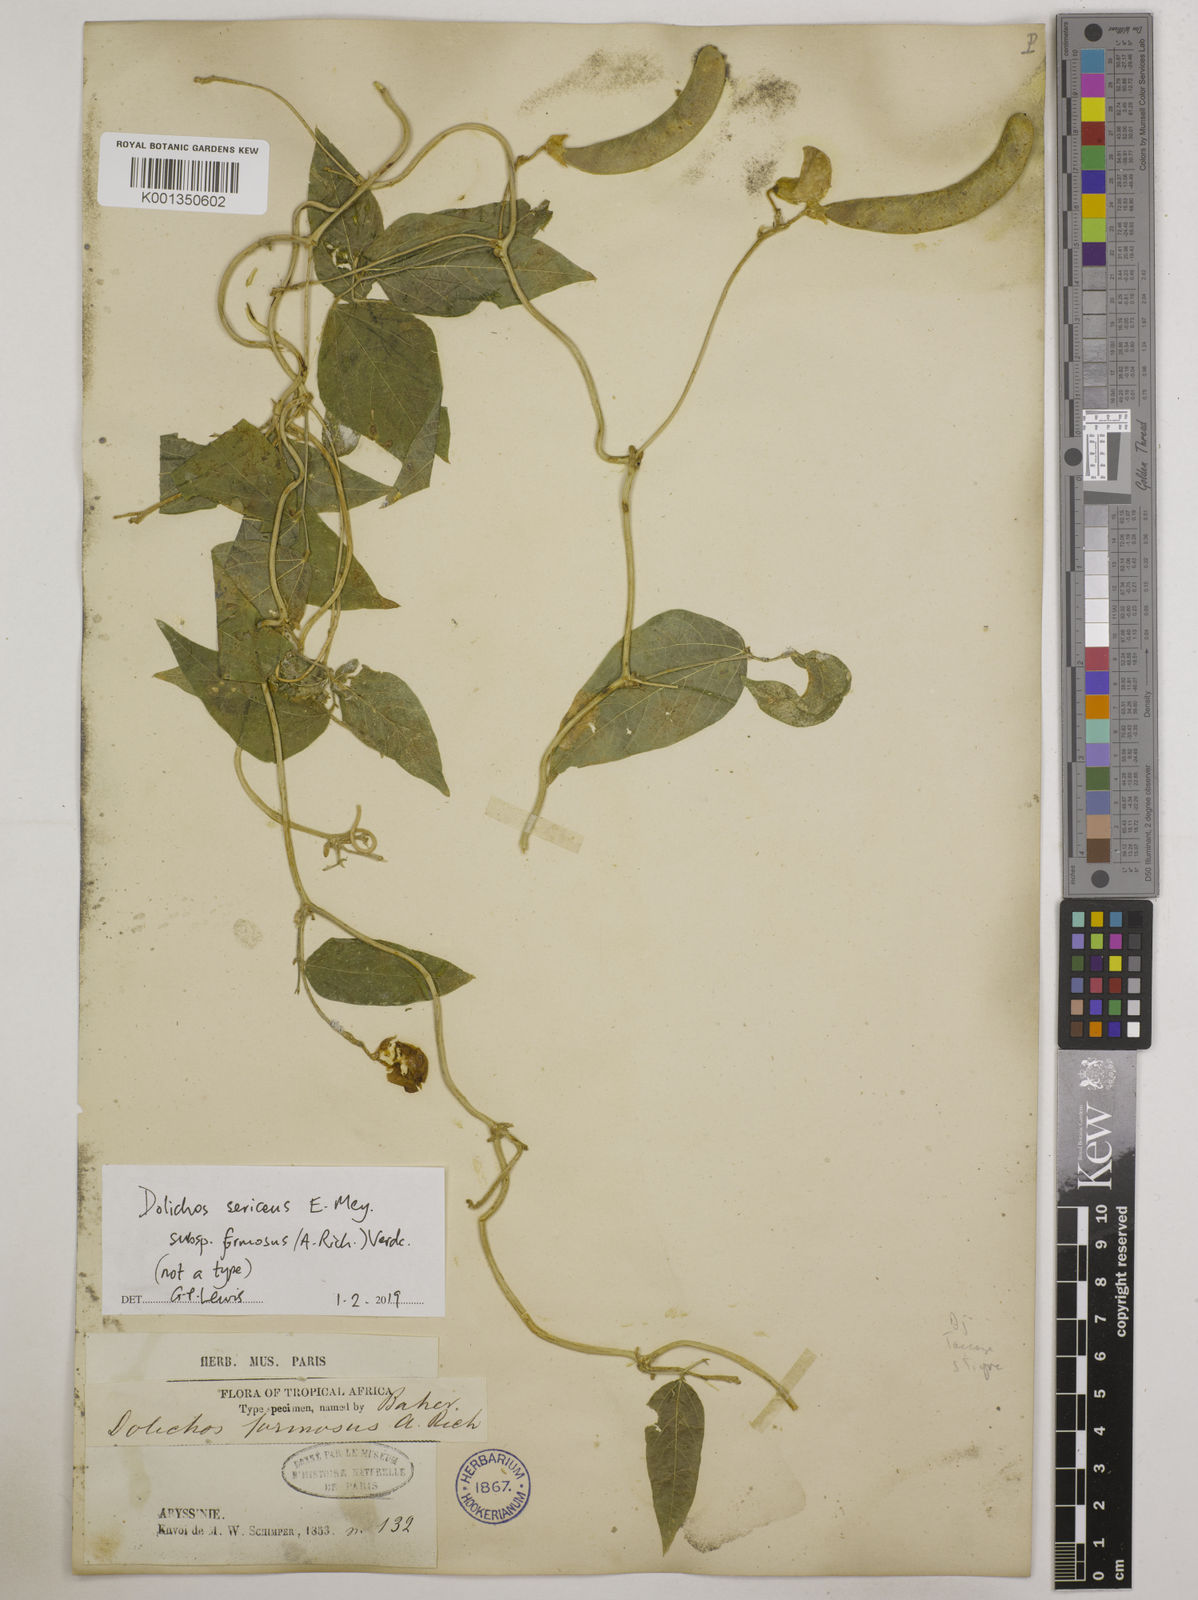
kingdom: Plantae
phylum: Tracheophyta
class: Magnoliopsida
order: Fabales
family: Fabaceae
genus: Dolichos
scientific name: Dolichos
